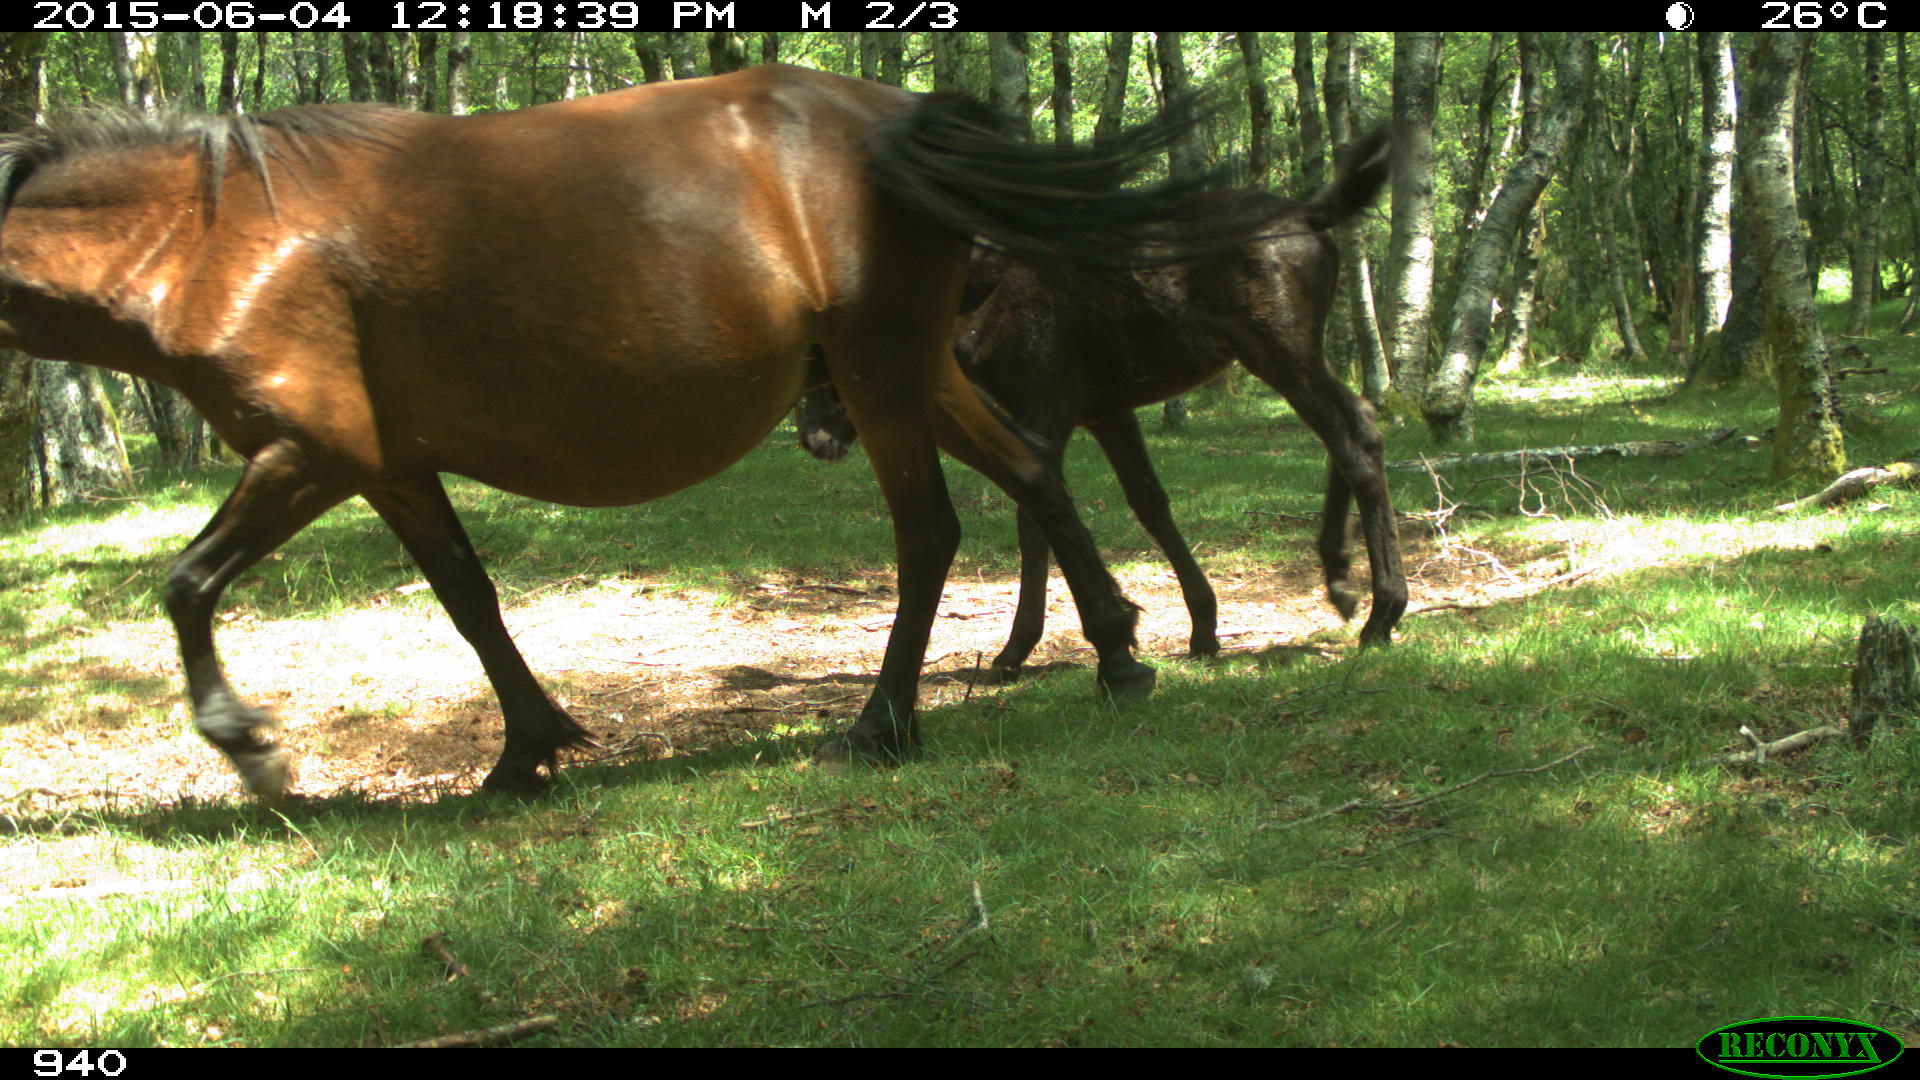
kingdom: Animalia
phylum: Chordata
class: Mammalia
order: Perissodactyla
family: Equidae
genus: Equus
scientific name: Equus caballus
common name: Horse
